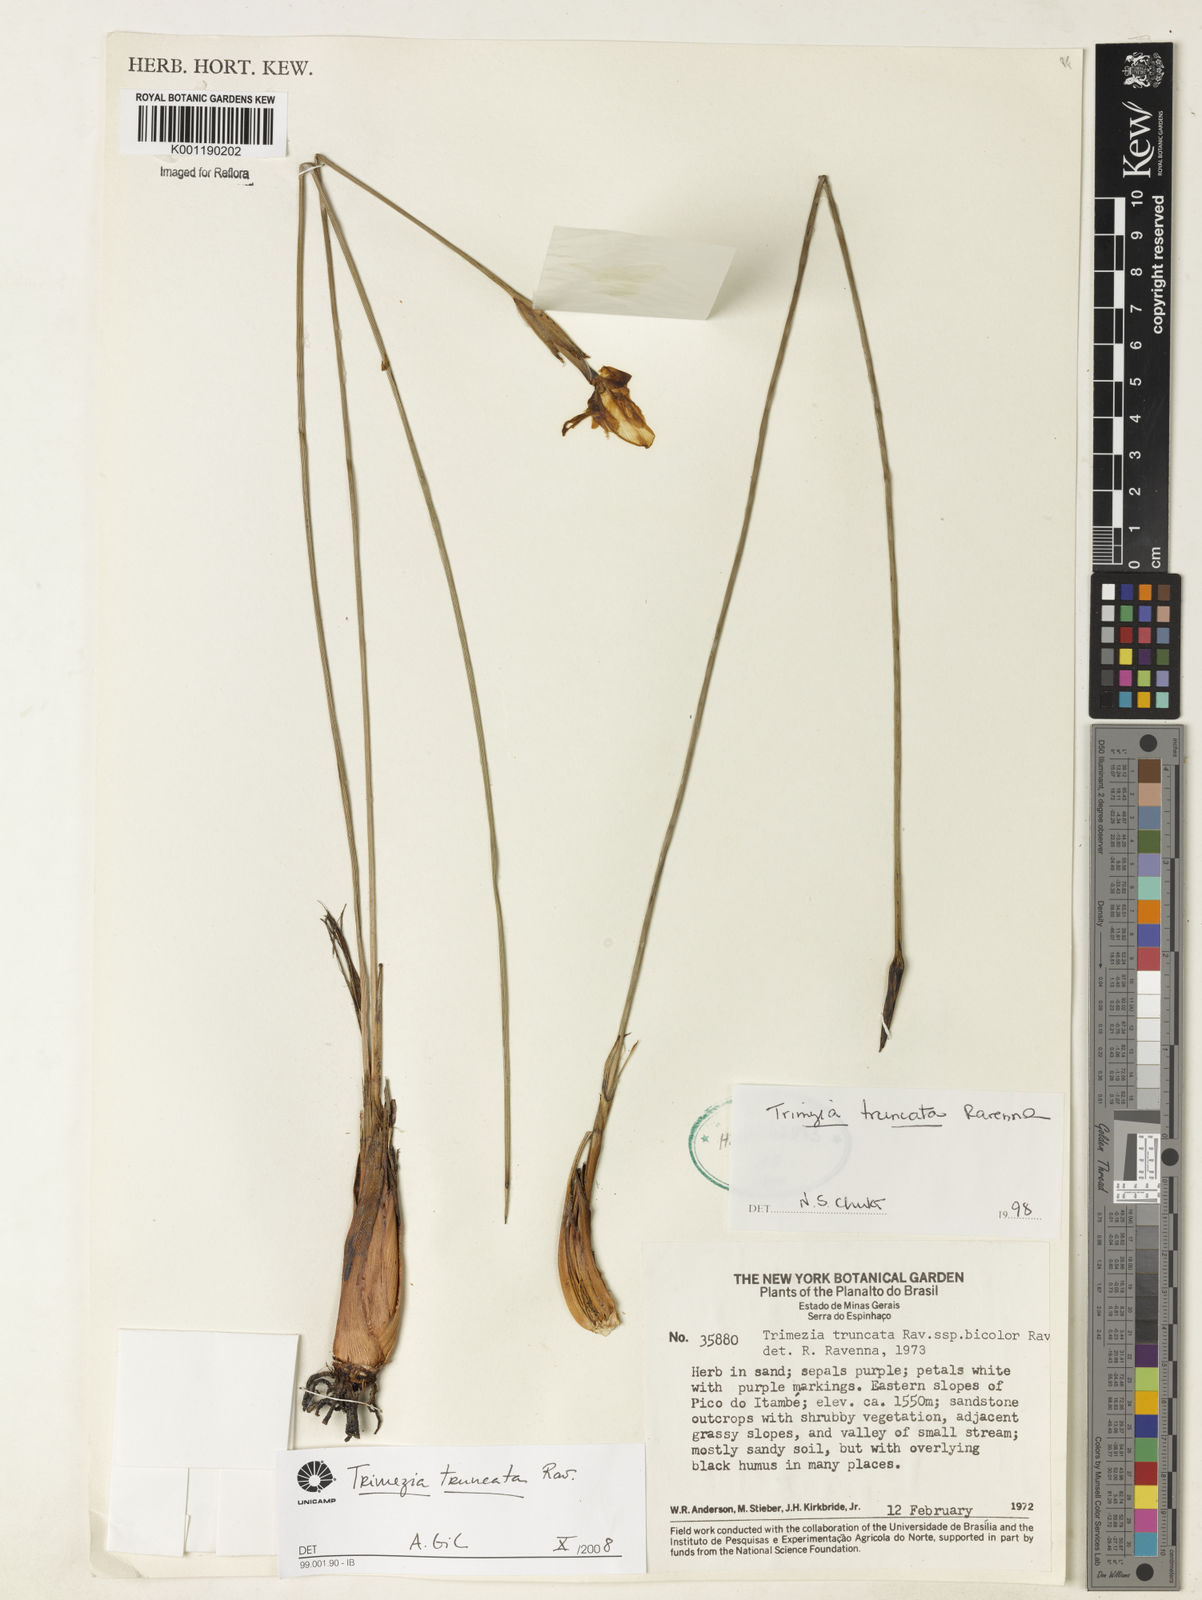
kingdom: Plantae
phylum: Tracheophyta
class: Liliopsida
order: Asparagales
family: Iridaceae
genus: Trimezia
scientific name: Trimezia truncata
